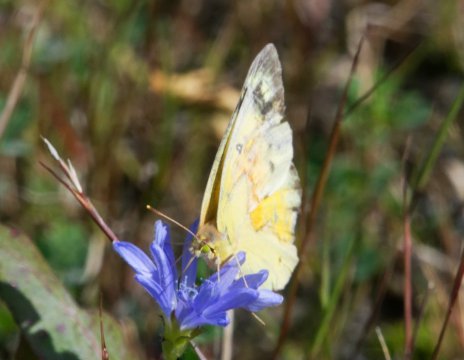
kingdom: Animalia
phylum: Arthropoda
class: Insecta
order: Lepidoptera
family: Pieridae
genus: Colias
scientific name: Colias eurytheme
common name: Orange Sulphur
